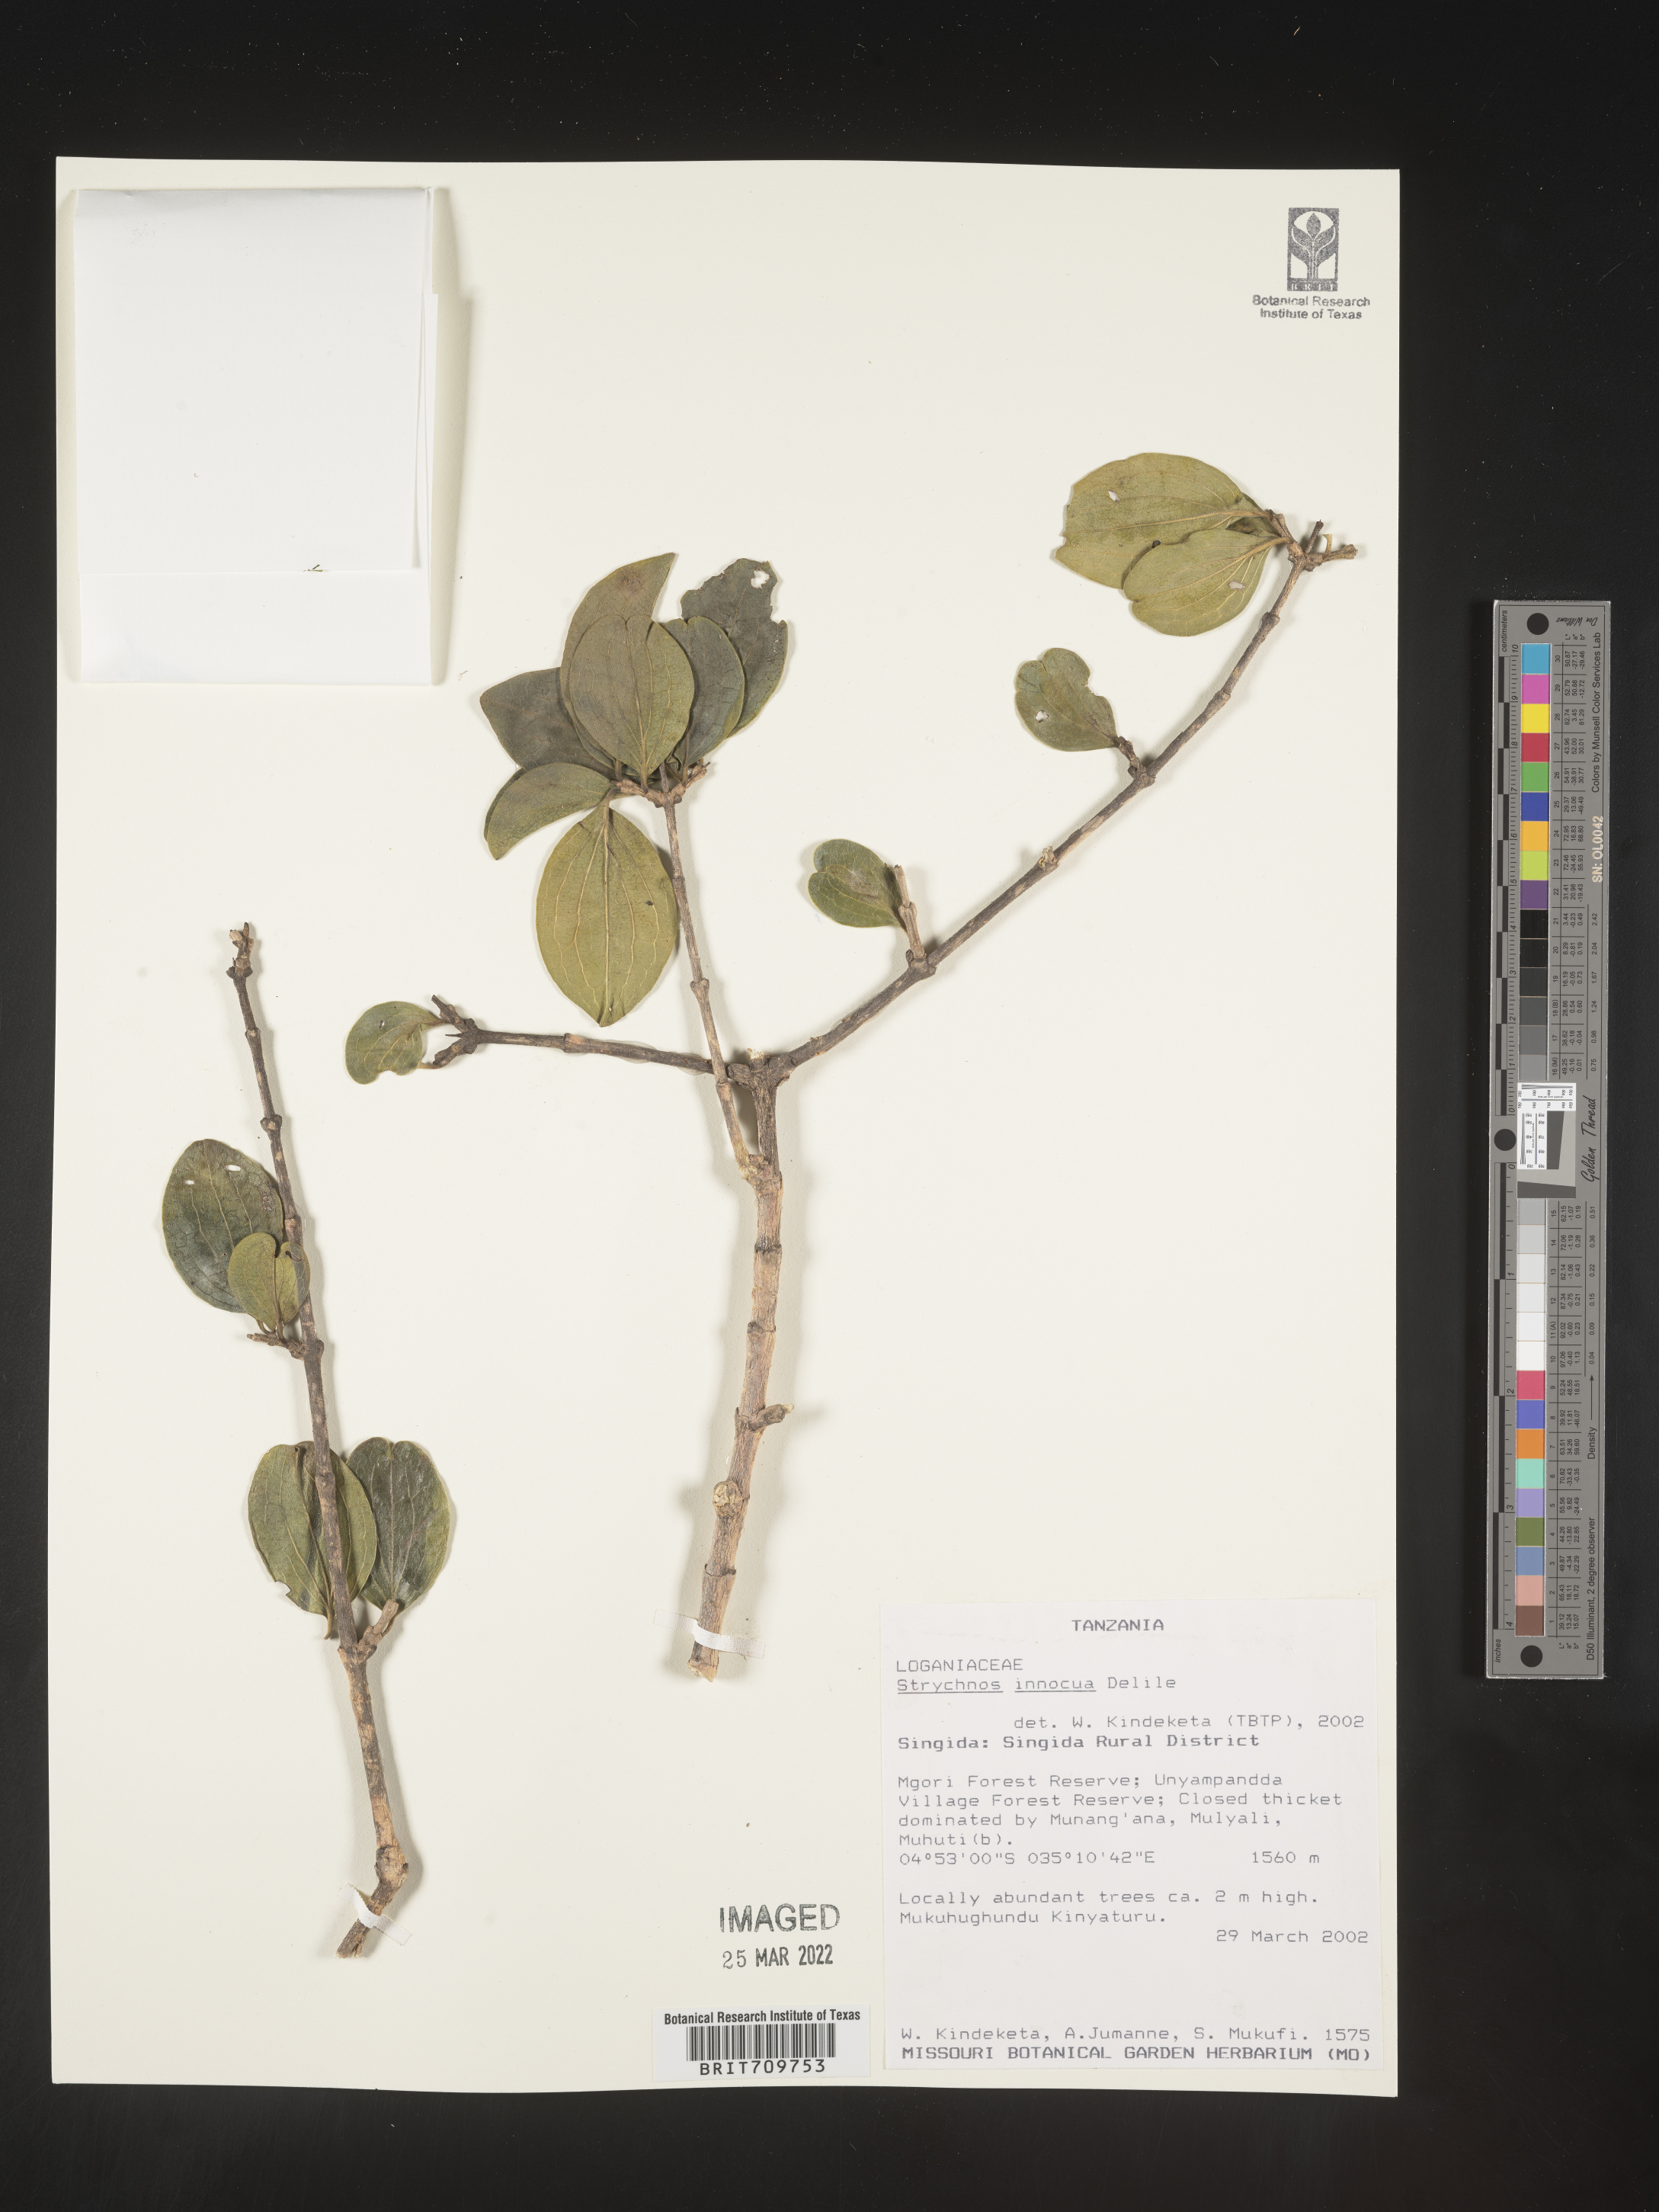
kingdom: Plantae
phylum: Tracheophyta
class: Magnoliopsida
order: Gentianales
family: Loganiaceae
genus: Strychnos
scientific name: Strychnos
